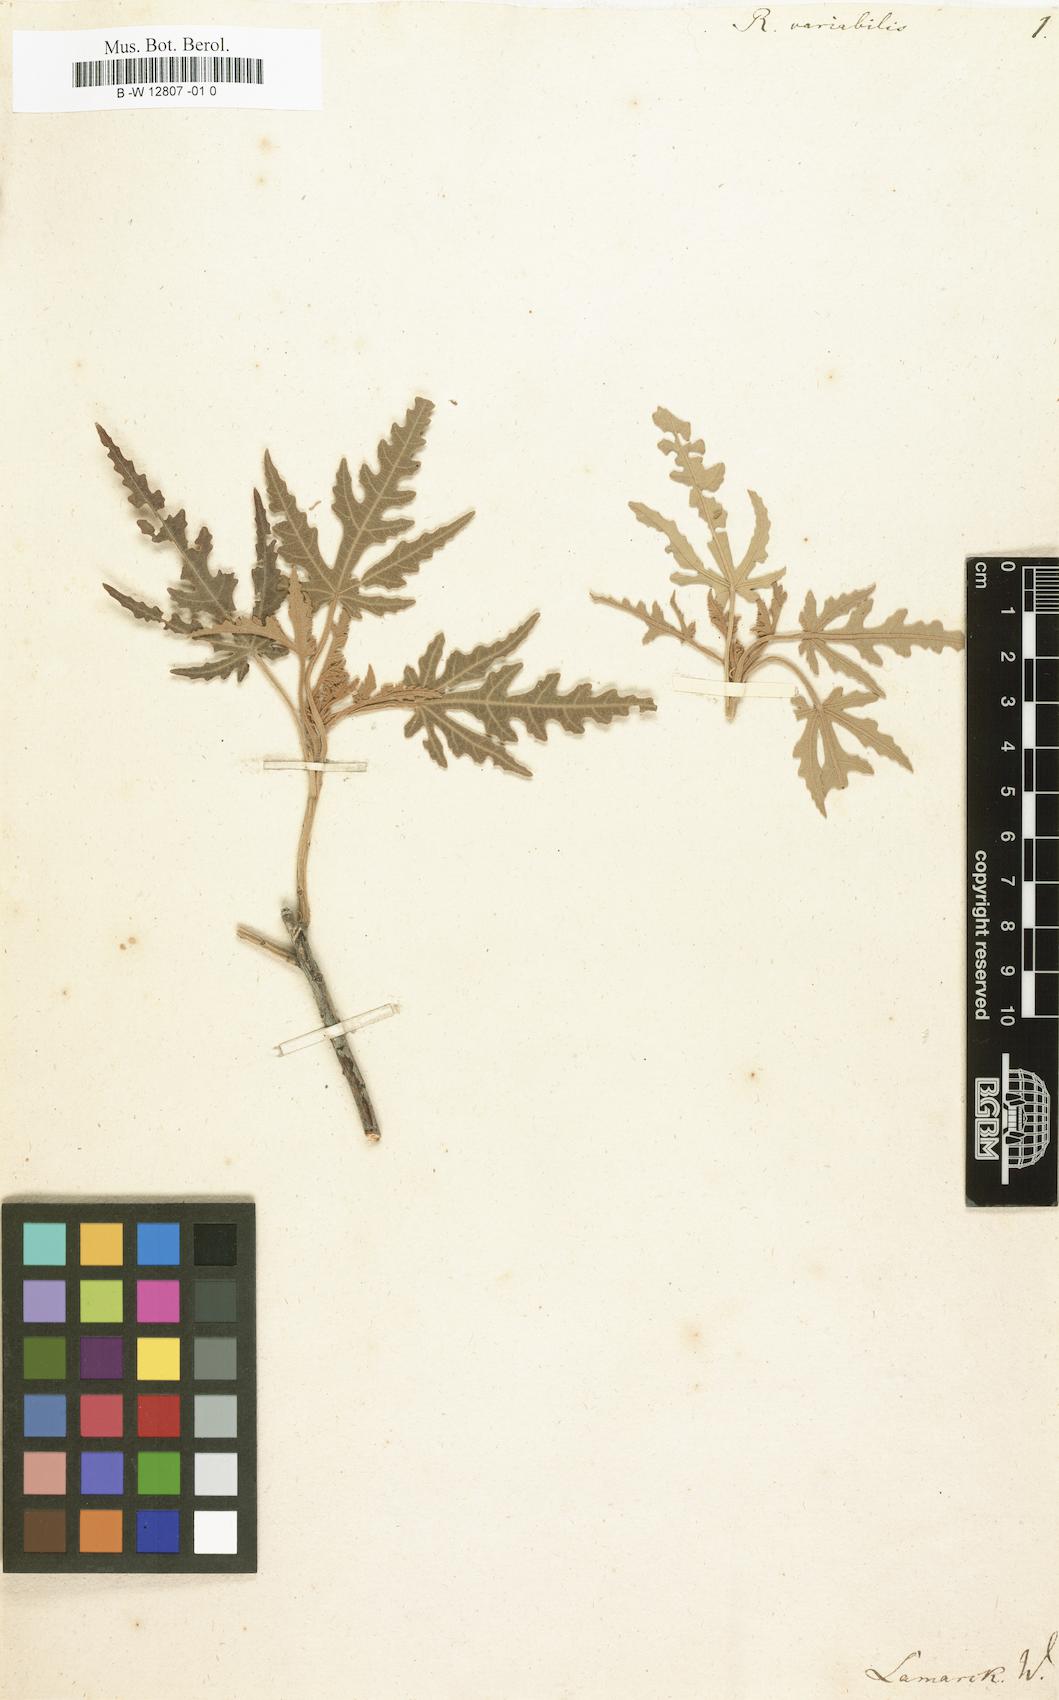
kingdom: Plantae
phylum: Tracheophyta
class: Magnoliopsida
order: Malvales
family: Malvaceae
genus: Ruizia
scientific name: Ruizia cordata
